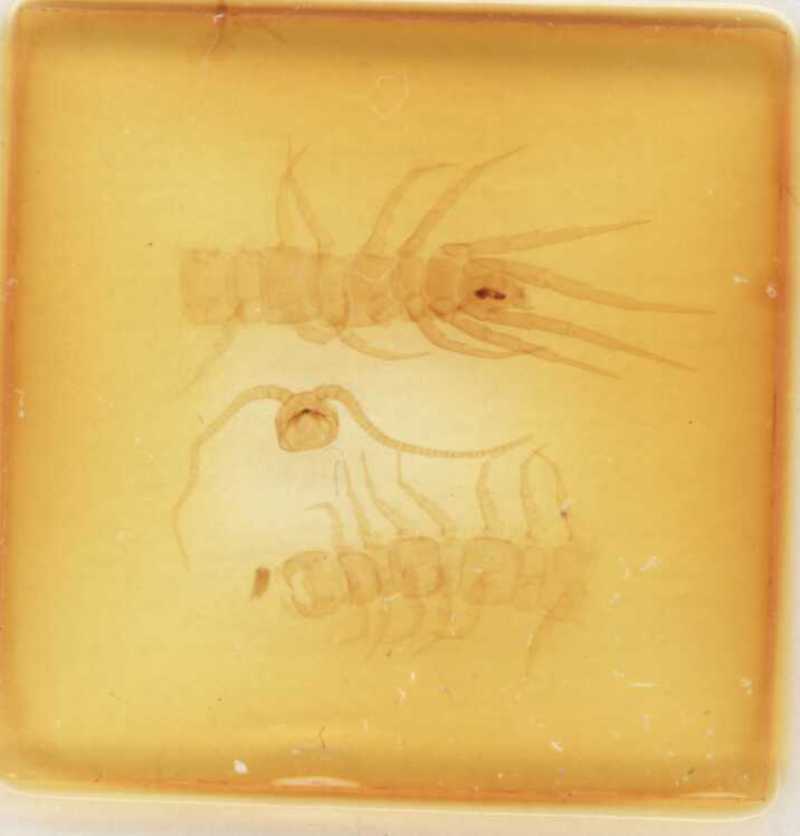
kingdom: Animalia
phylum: Arthropoda
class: Chilopoda
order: Lithobiomorpha
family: Lithobiidae
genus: Lithobius
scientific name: Lithobius subtilis
